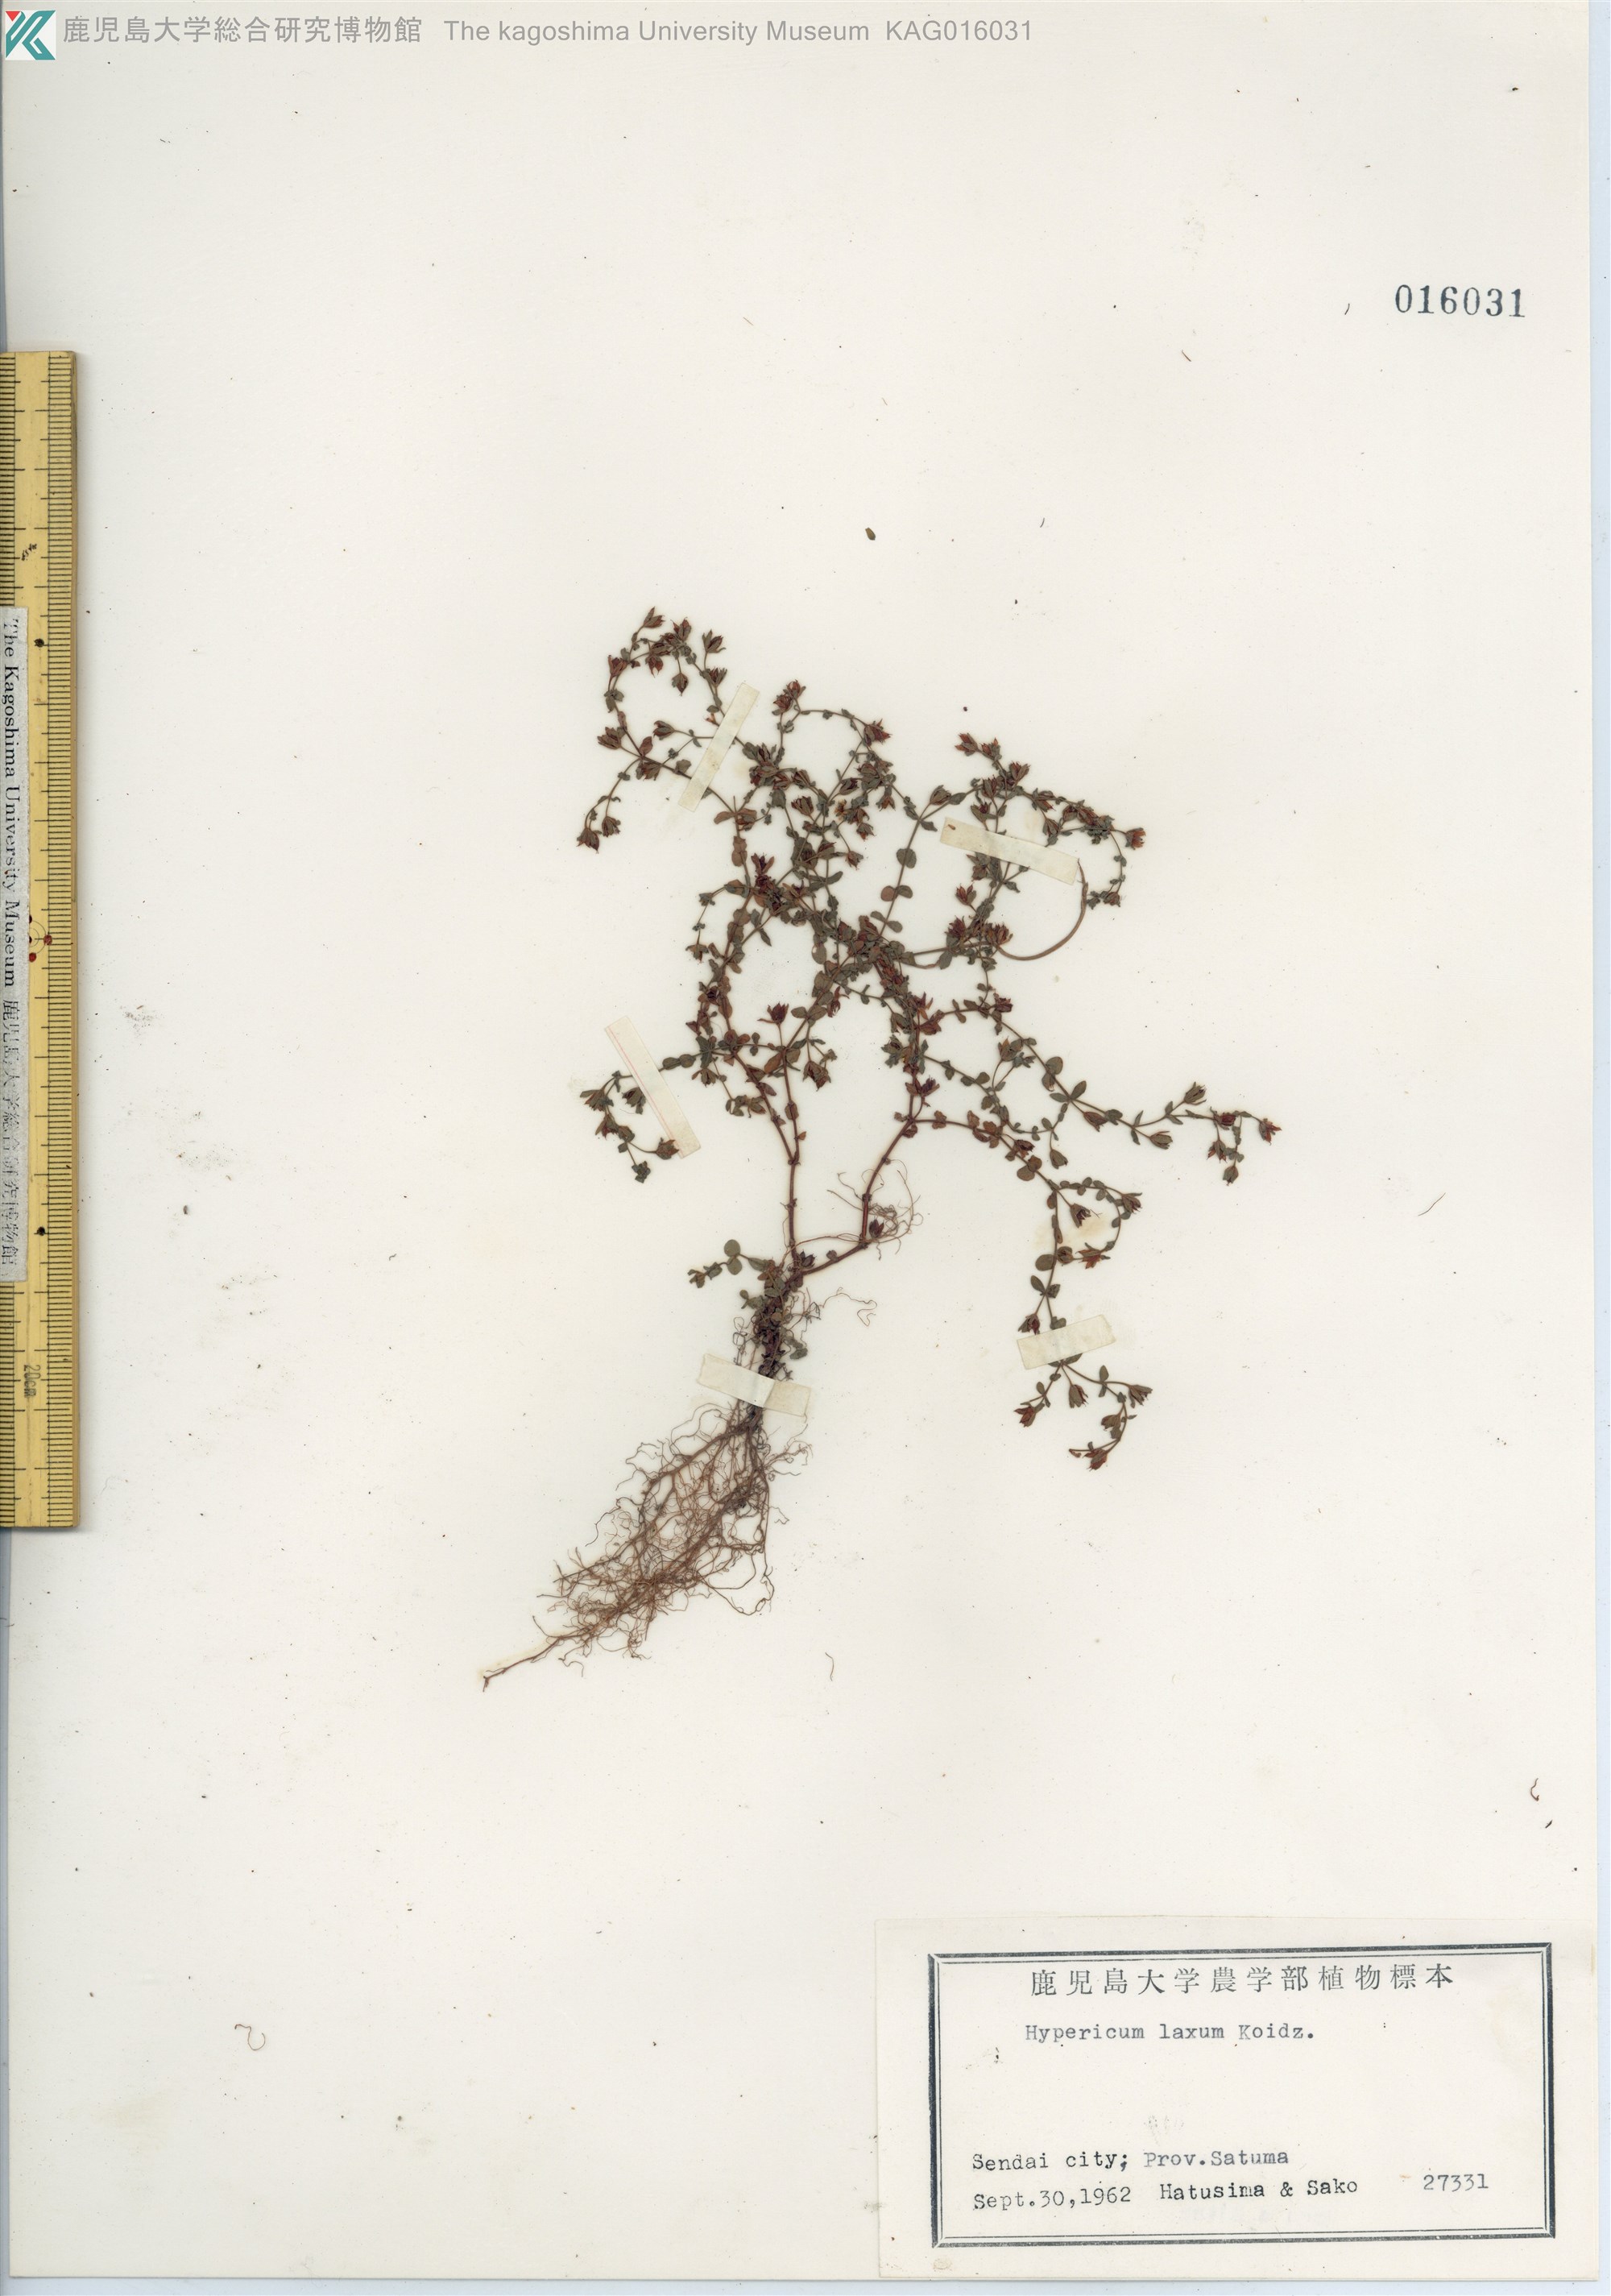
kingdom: Plantae
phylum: Tracheophyta
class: Magnoliopsida
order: Malpighiales
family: Hypericaceae
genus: Hypericum
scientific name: Hypericum japonicum
